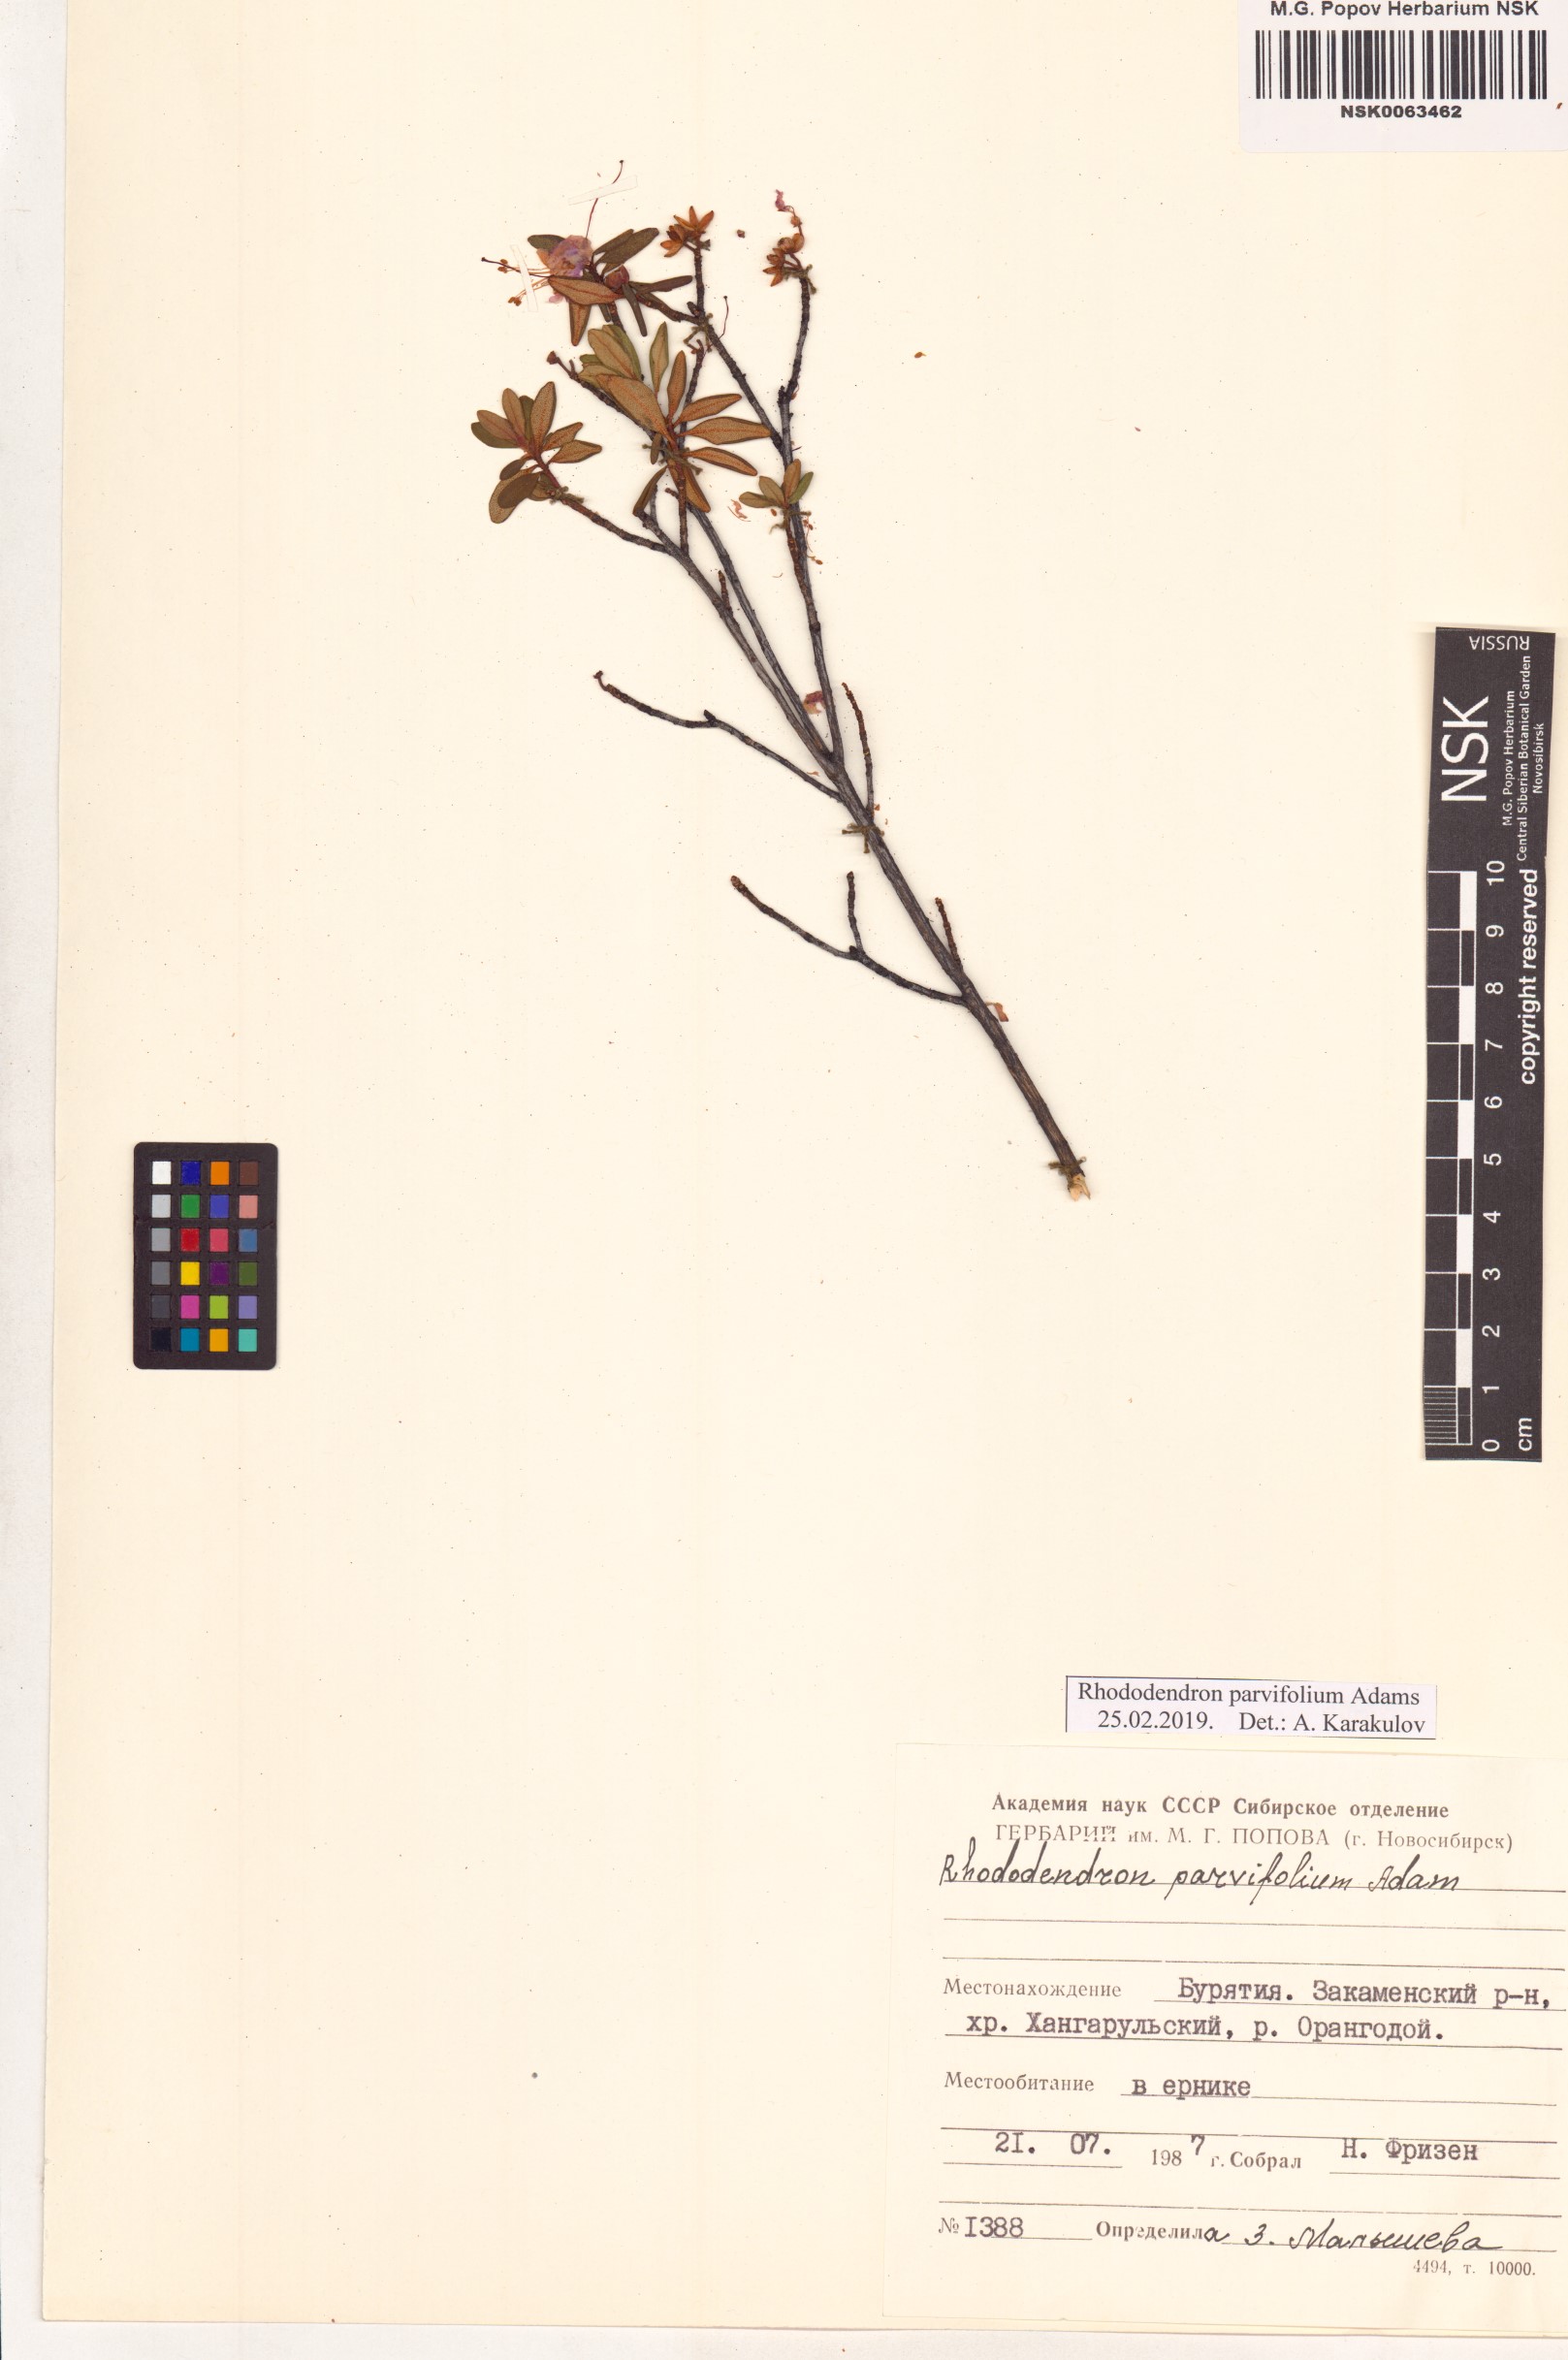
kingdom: Plantae
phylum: Tracheophyta
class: Magnoliopsida
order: Ericales
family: Ericaceae
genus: Rhododendron
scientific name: Rhododendron parvifolium
